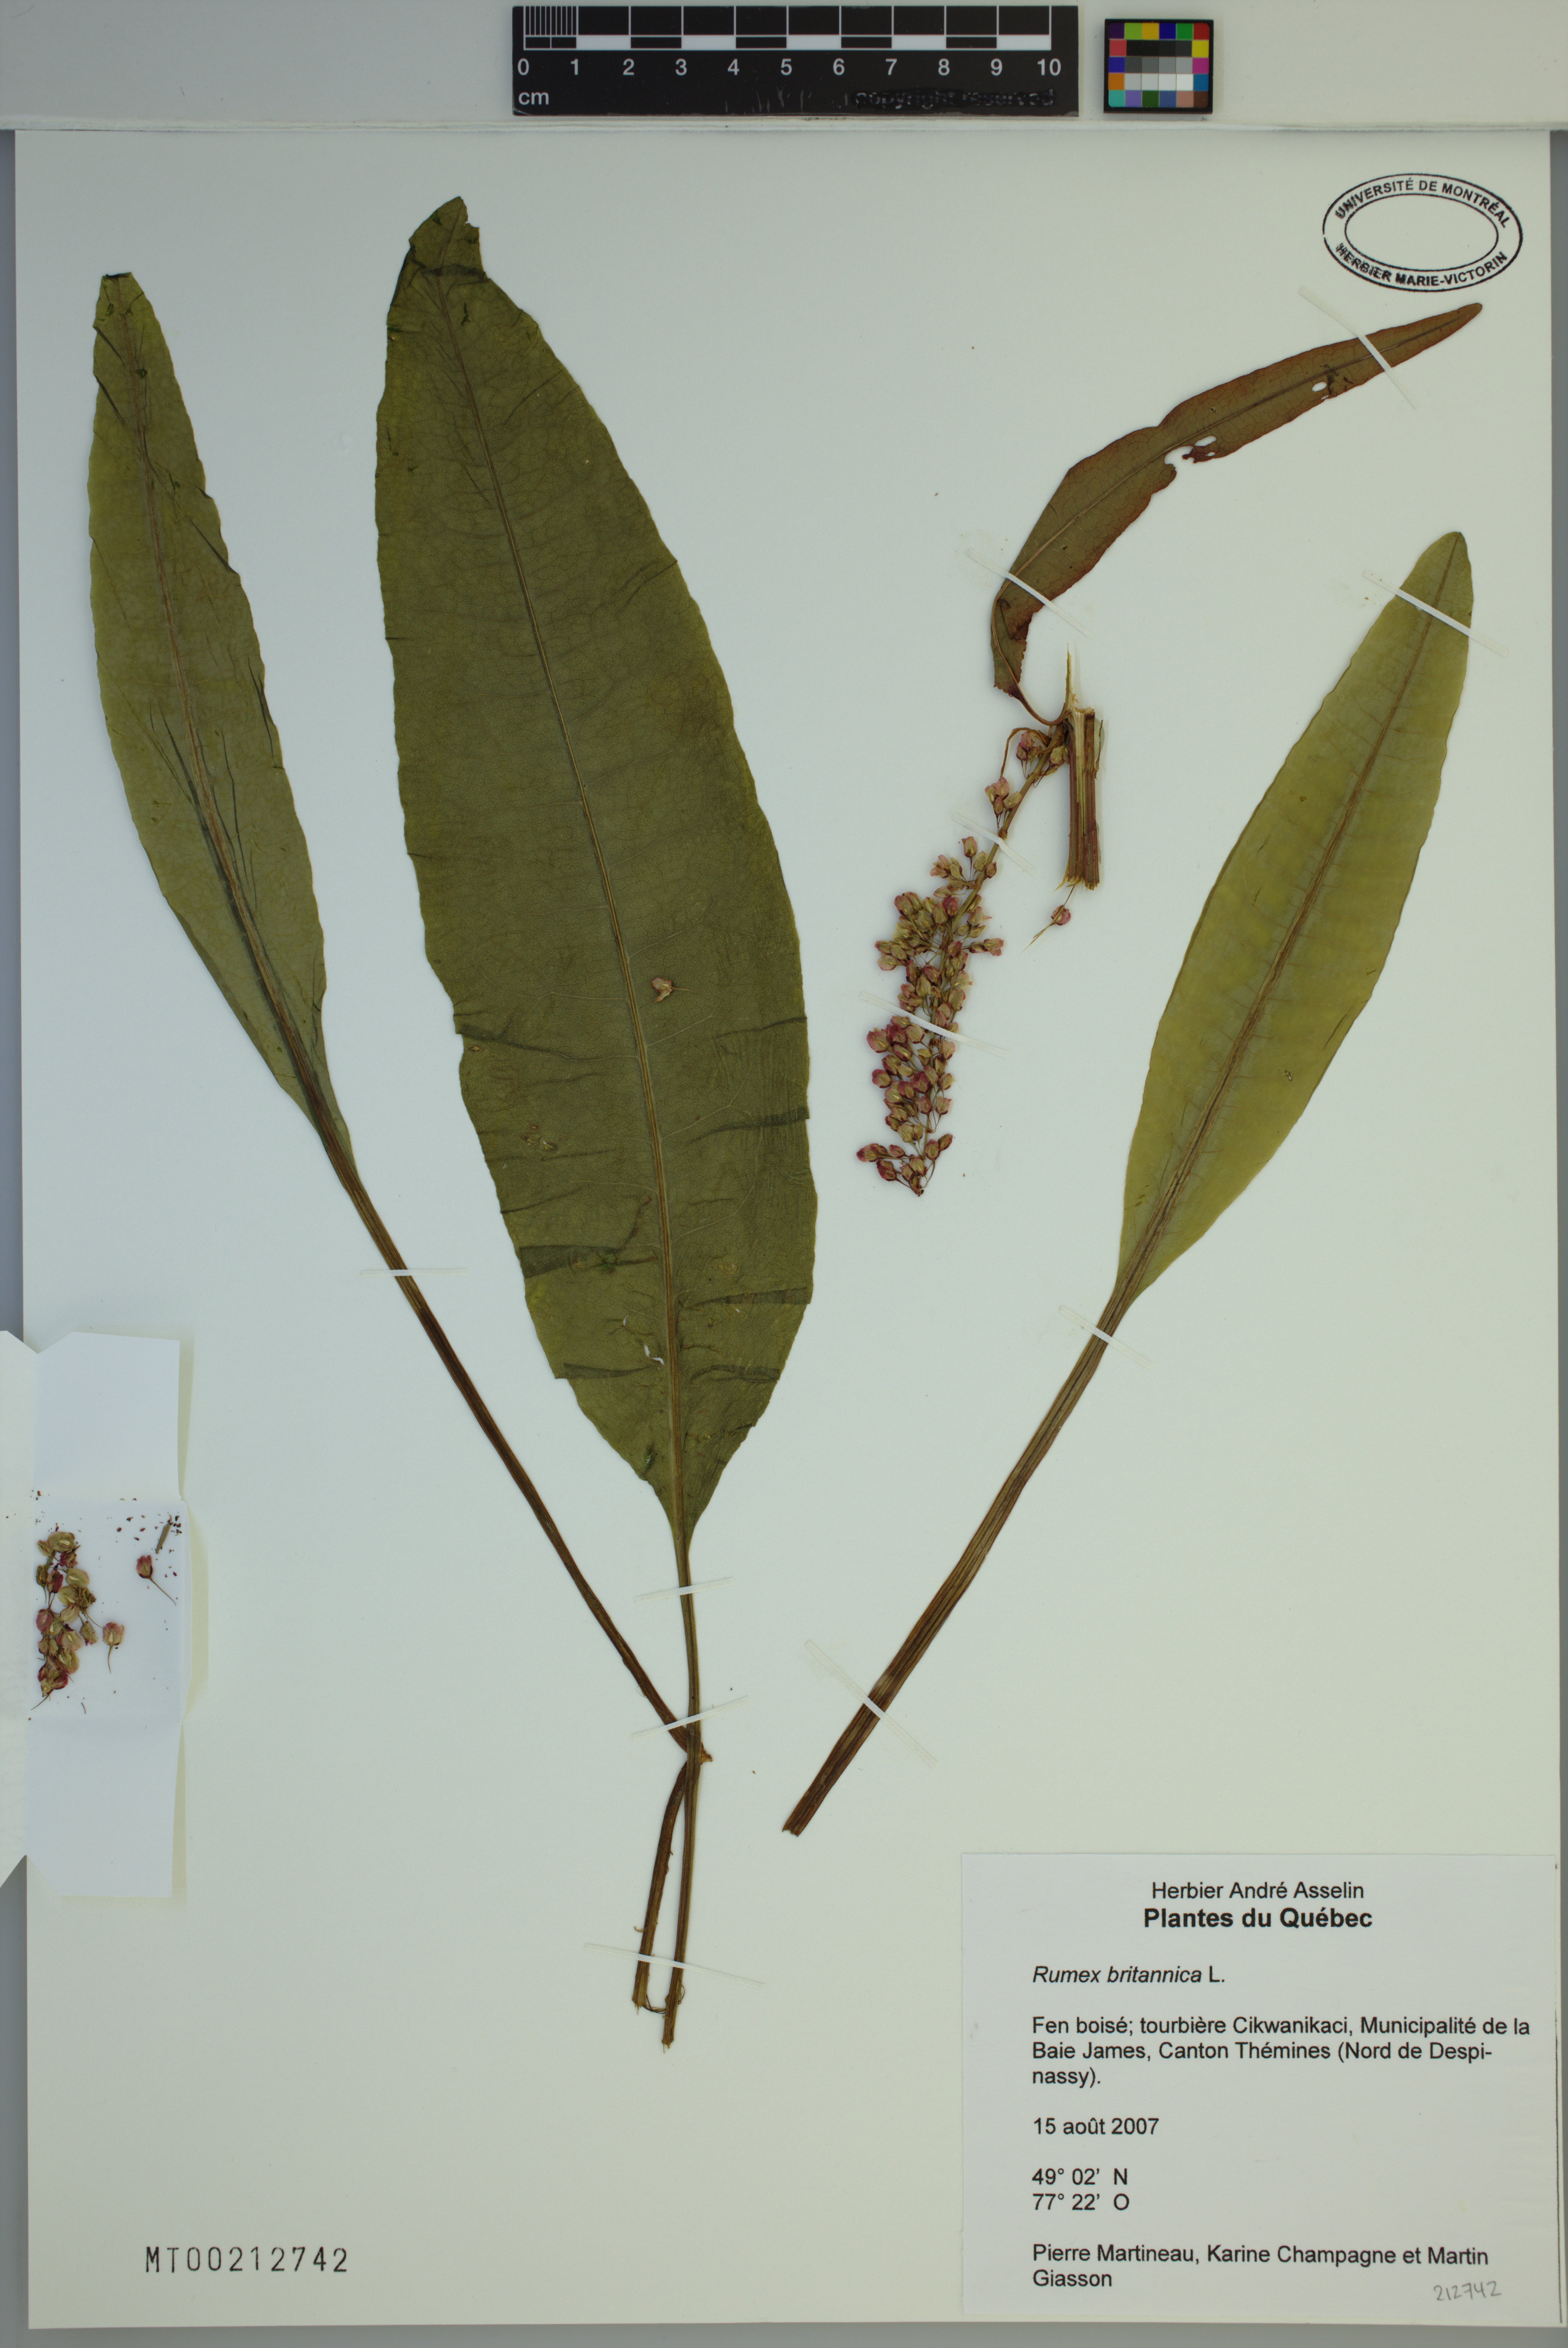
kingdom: Plantae
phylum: Tracheophyta
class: Magnoliopsida
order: Caryophyllales
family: Polygonaceae
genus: Rumex
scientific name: Rumex britannica
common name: British dock
